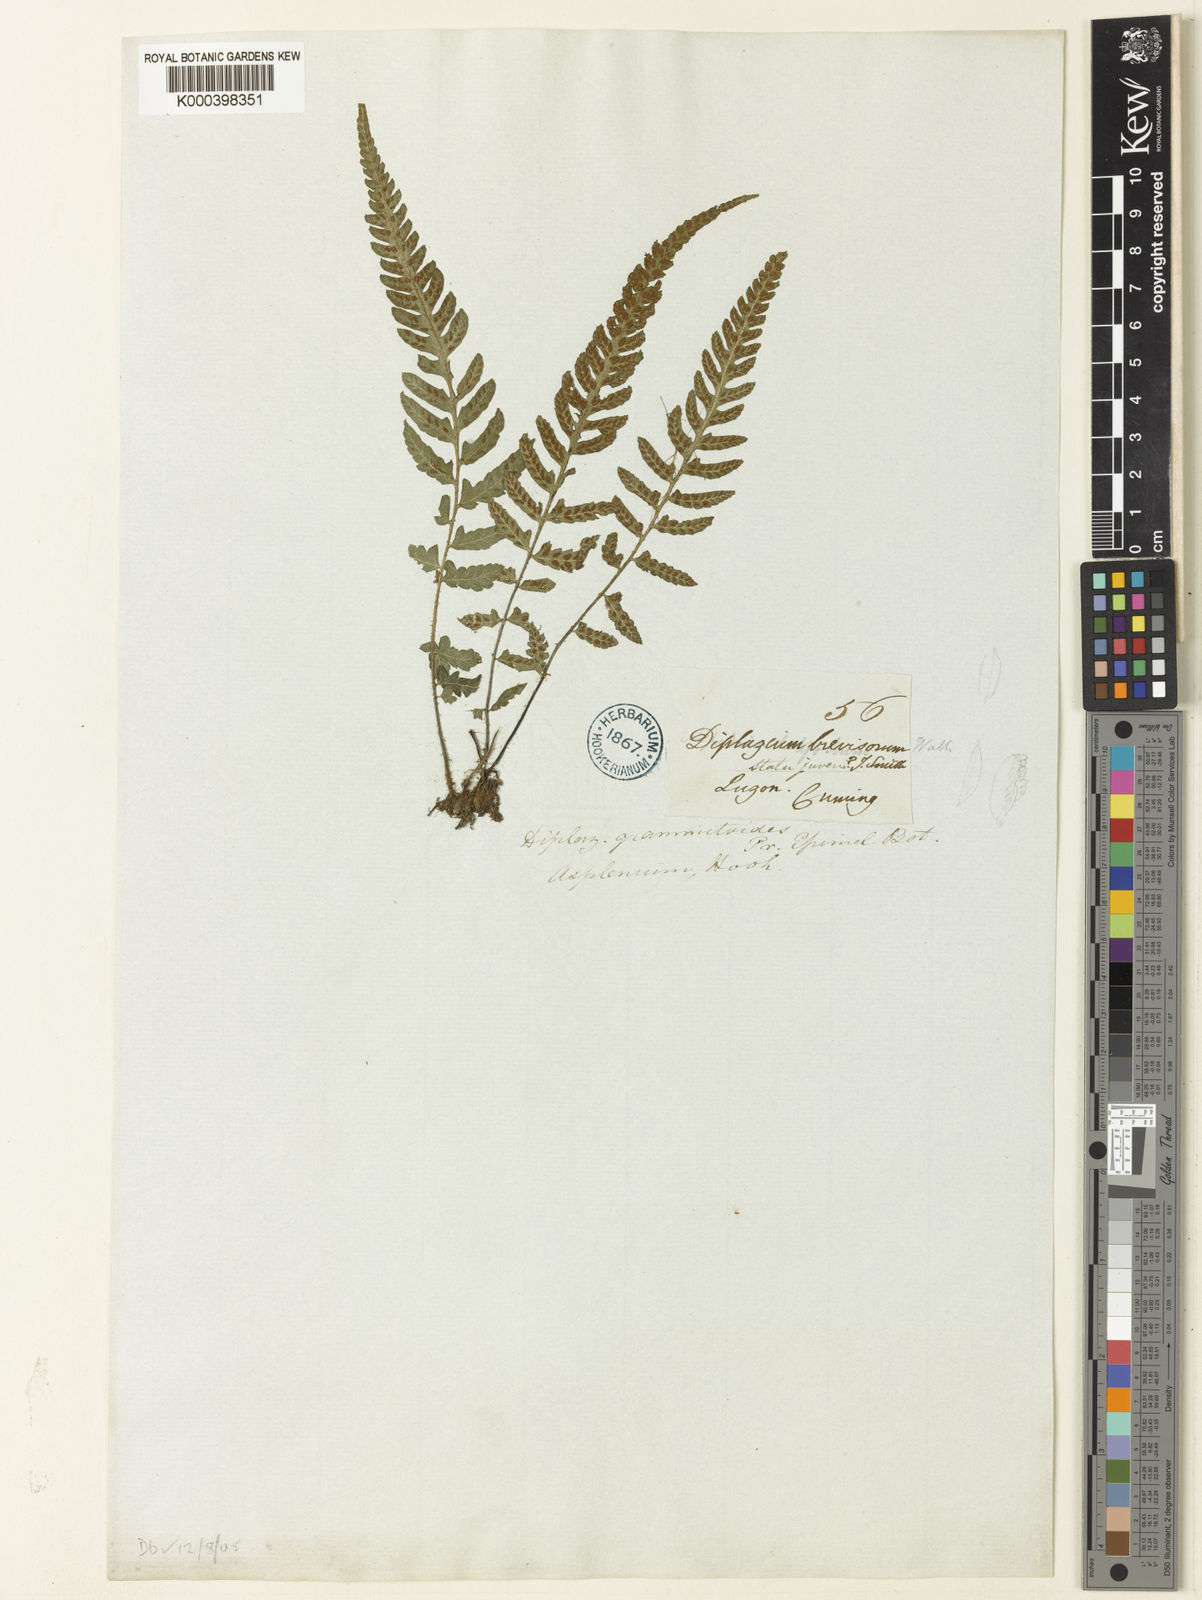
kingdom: Plantae
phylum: Tracheophyta
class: Polypodiopsida
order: Polypodiales
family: Athyriaceae
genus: Deparia
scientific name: Deparia confluens
